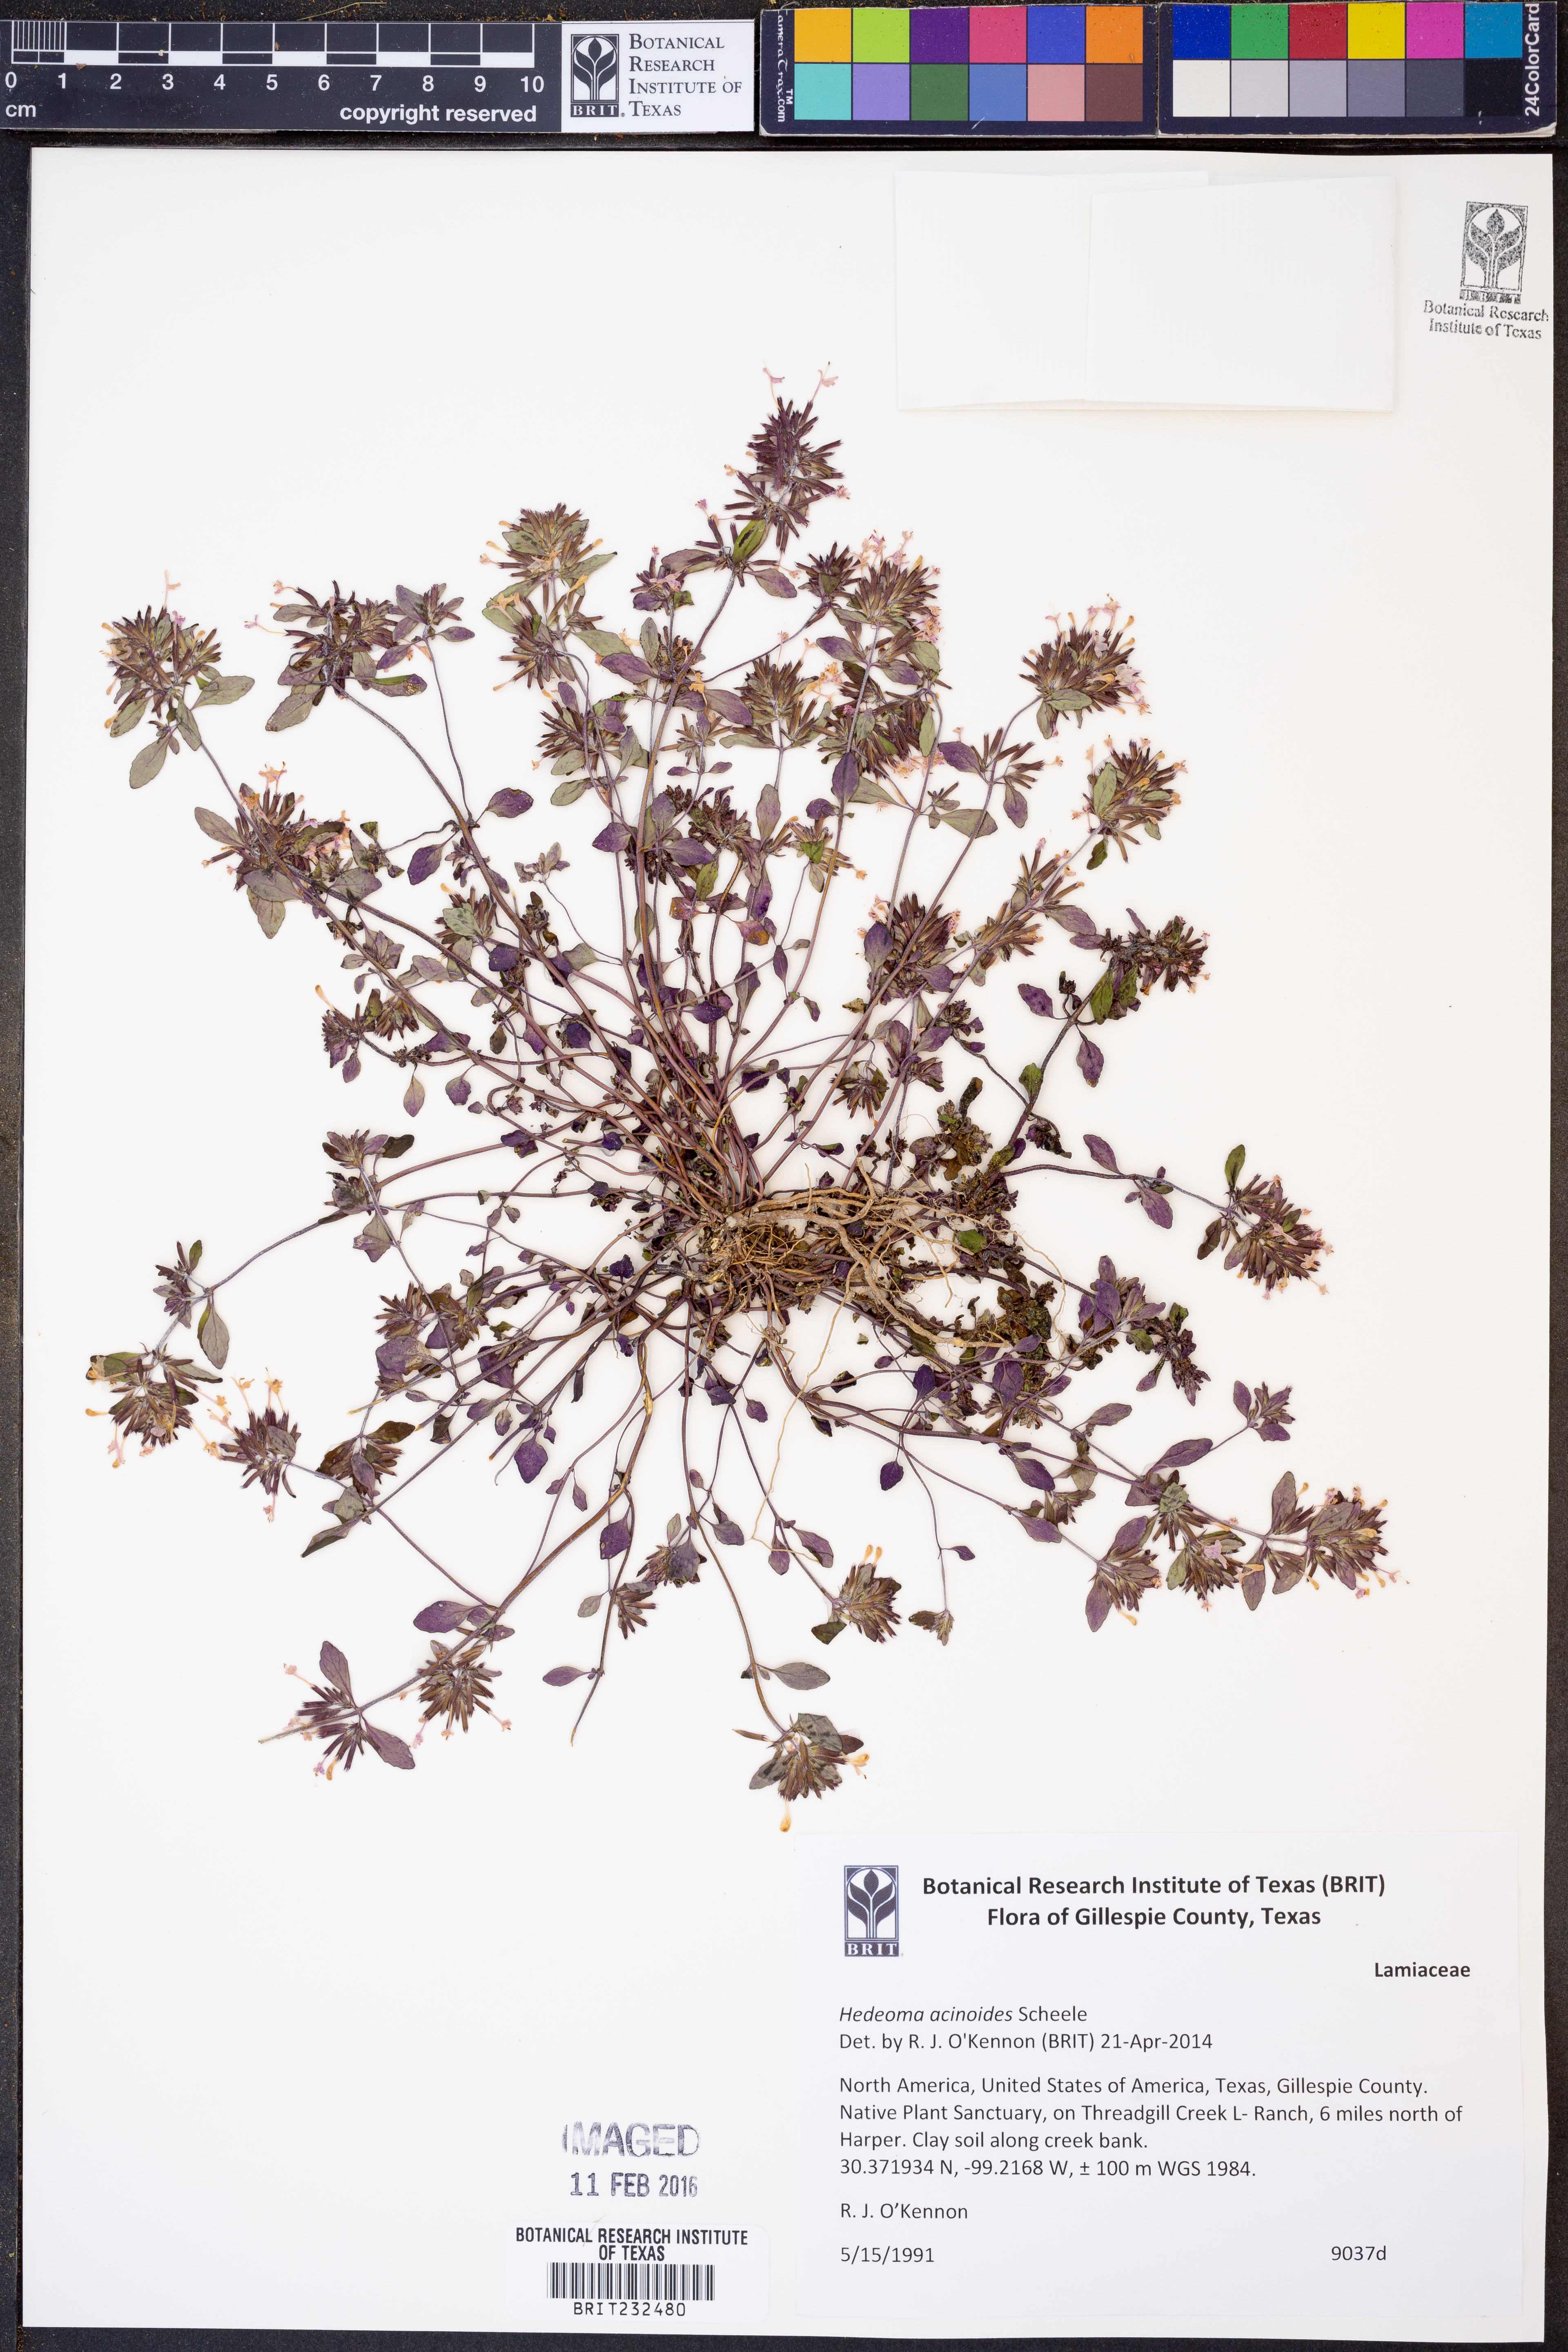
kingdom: Plantae
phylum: Tracheophyta
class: Magnoliopsida
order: Lamiales
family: Lamiaceae
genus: Hedeoma
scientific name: Hedeoma acinoides
